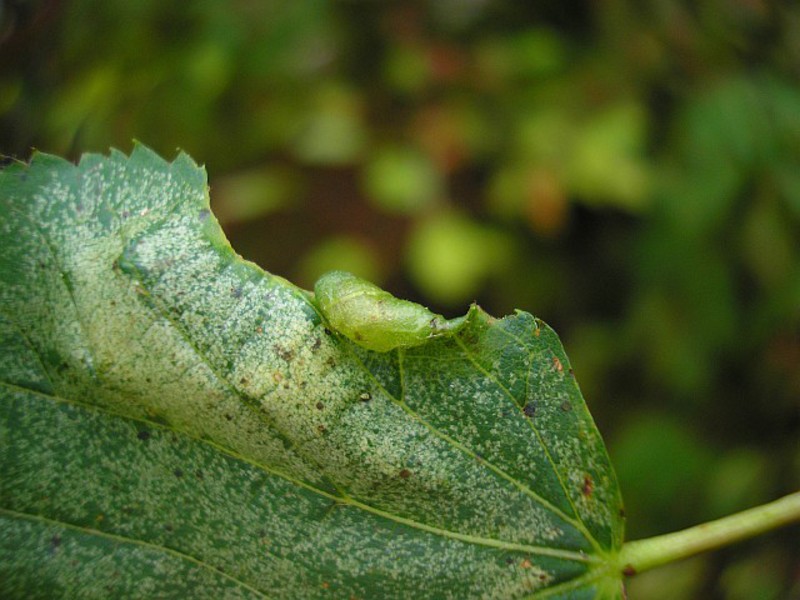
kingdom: Animalia
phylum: Arthropoda
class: Insecta
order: Diptera
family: Cecidomyiidae
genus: Dasineura
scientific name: Dasineura tiliae
